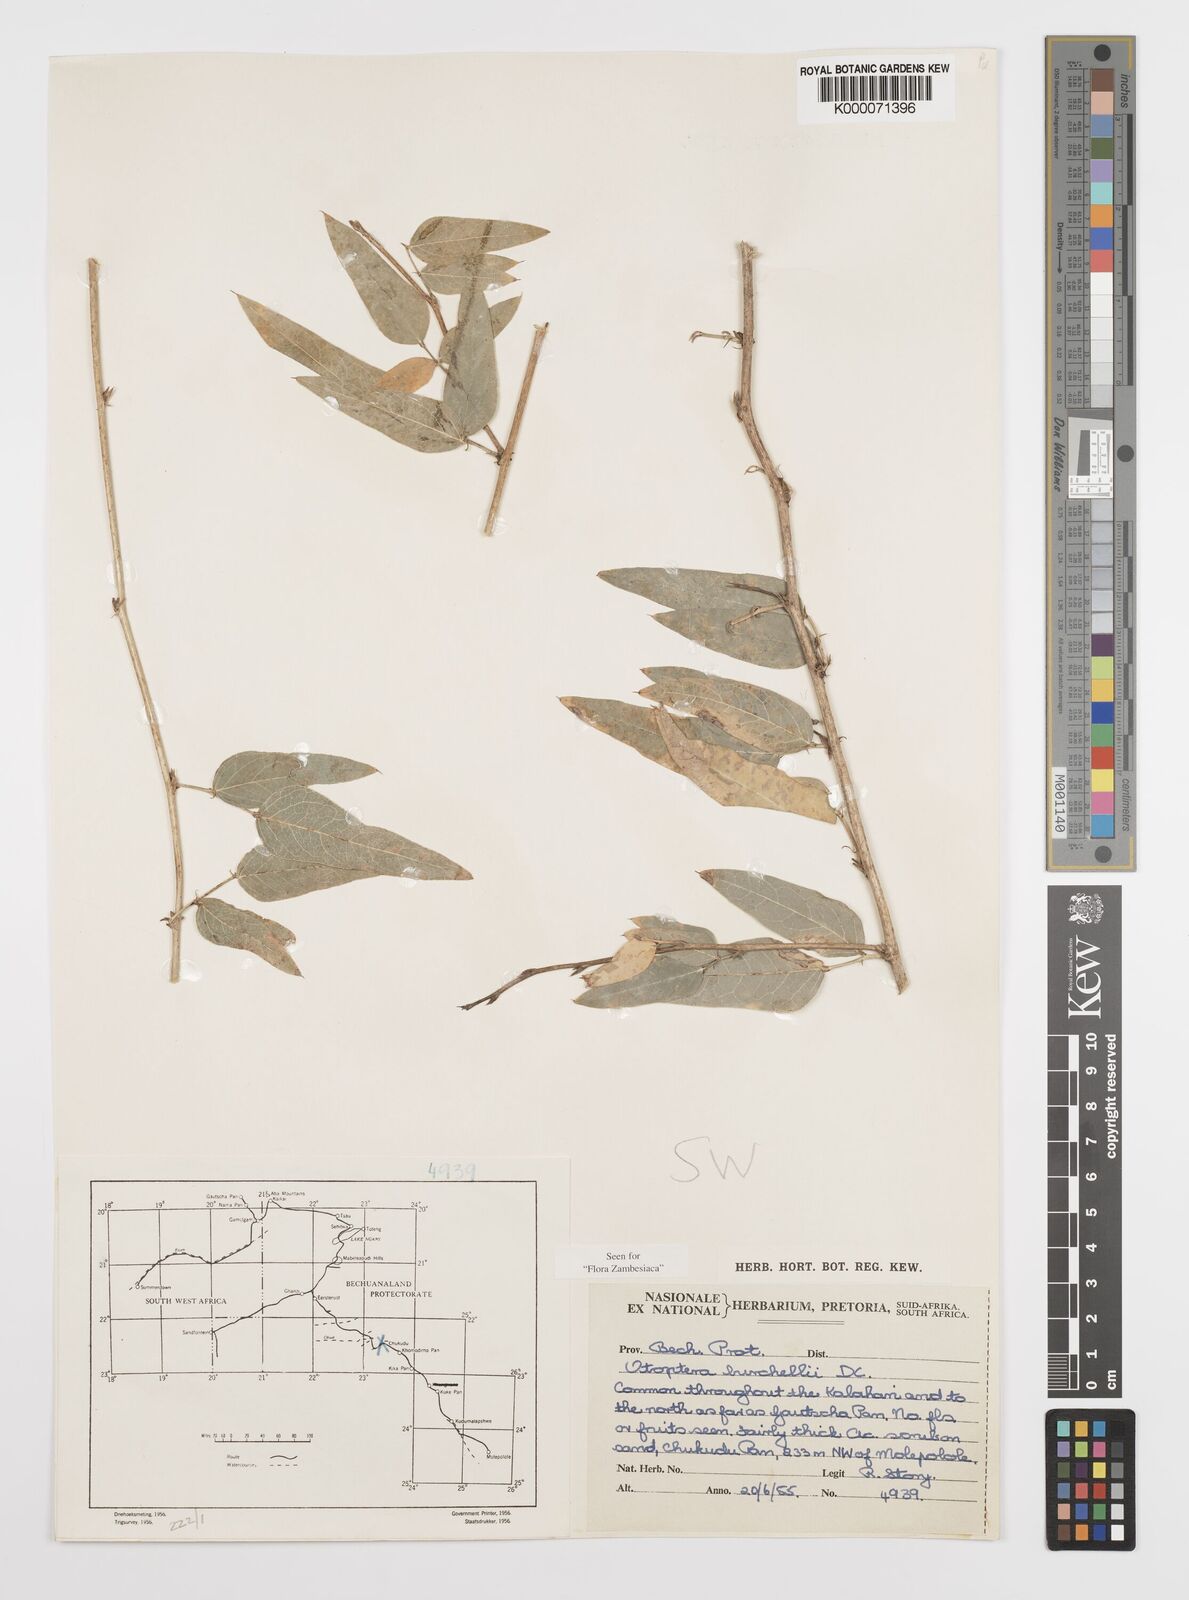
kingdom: Plantae
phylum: Tracheophyta
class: Magnoliopsida
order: Fabales
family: Fabaceae
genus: Otoptera
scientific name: Otoptera burchellii
